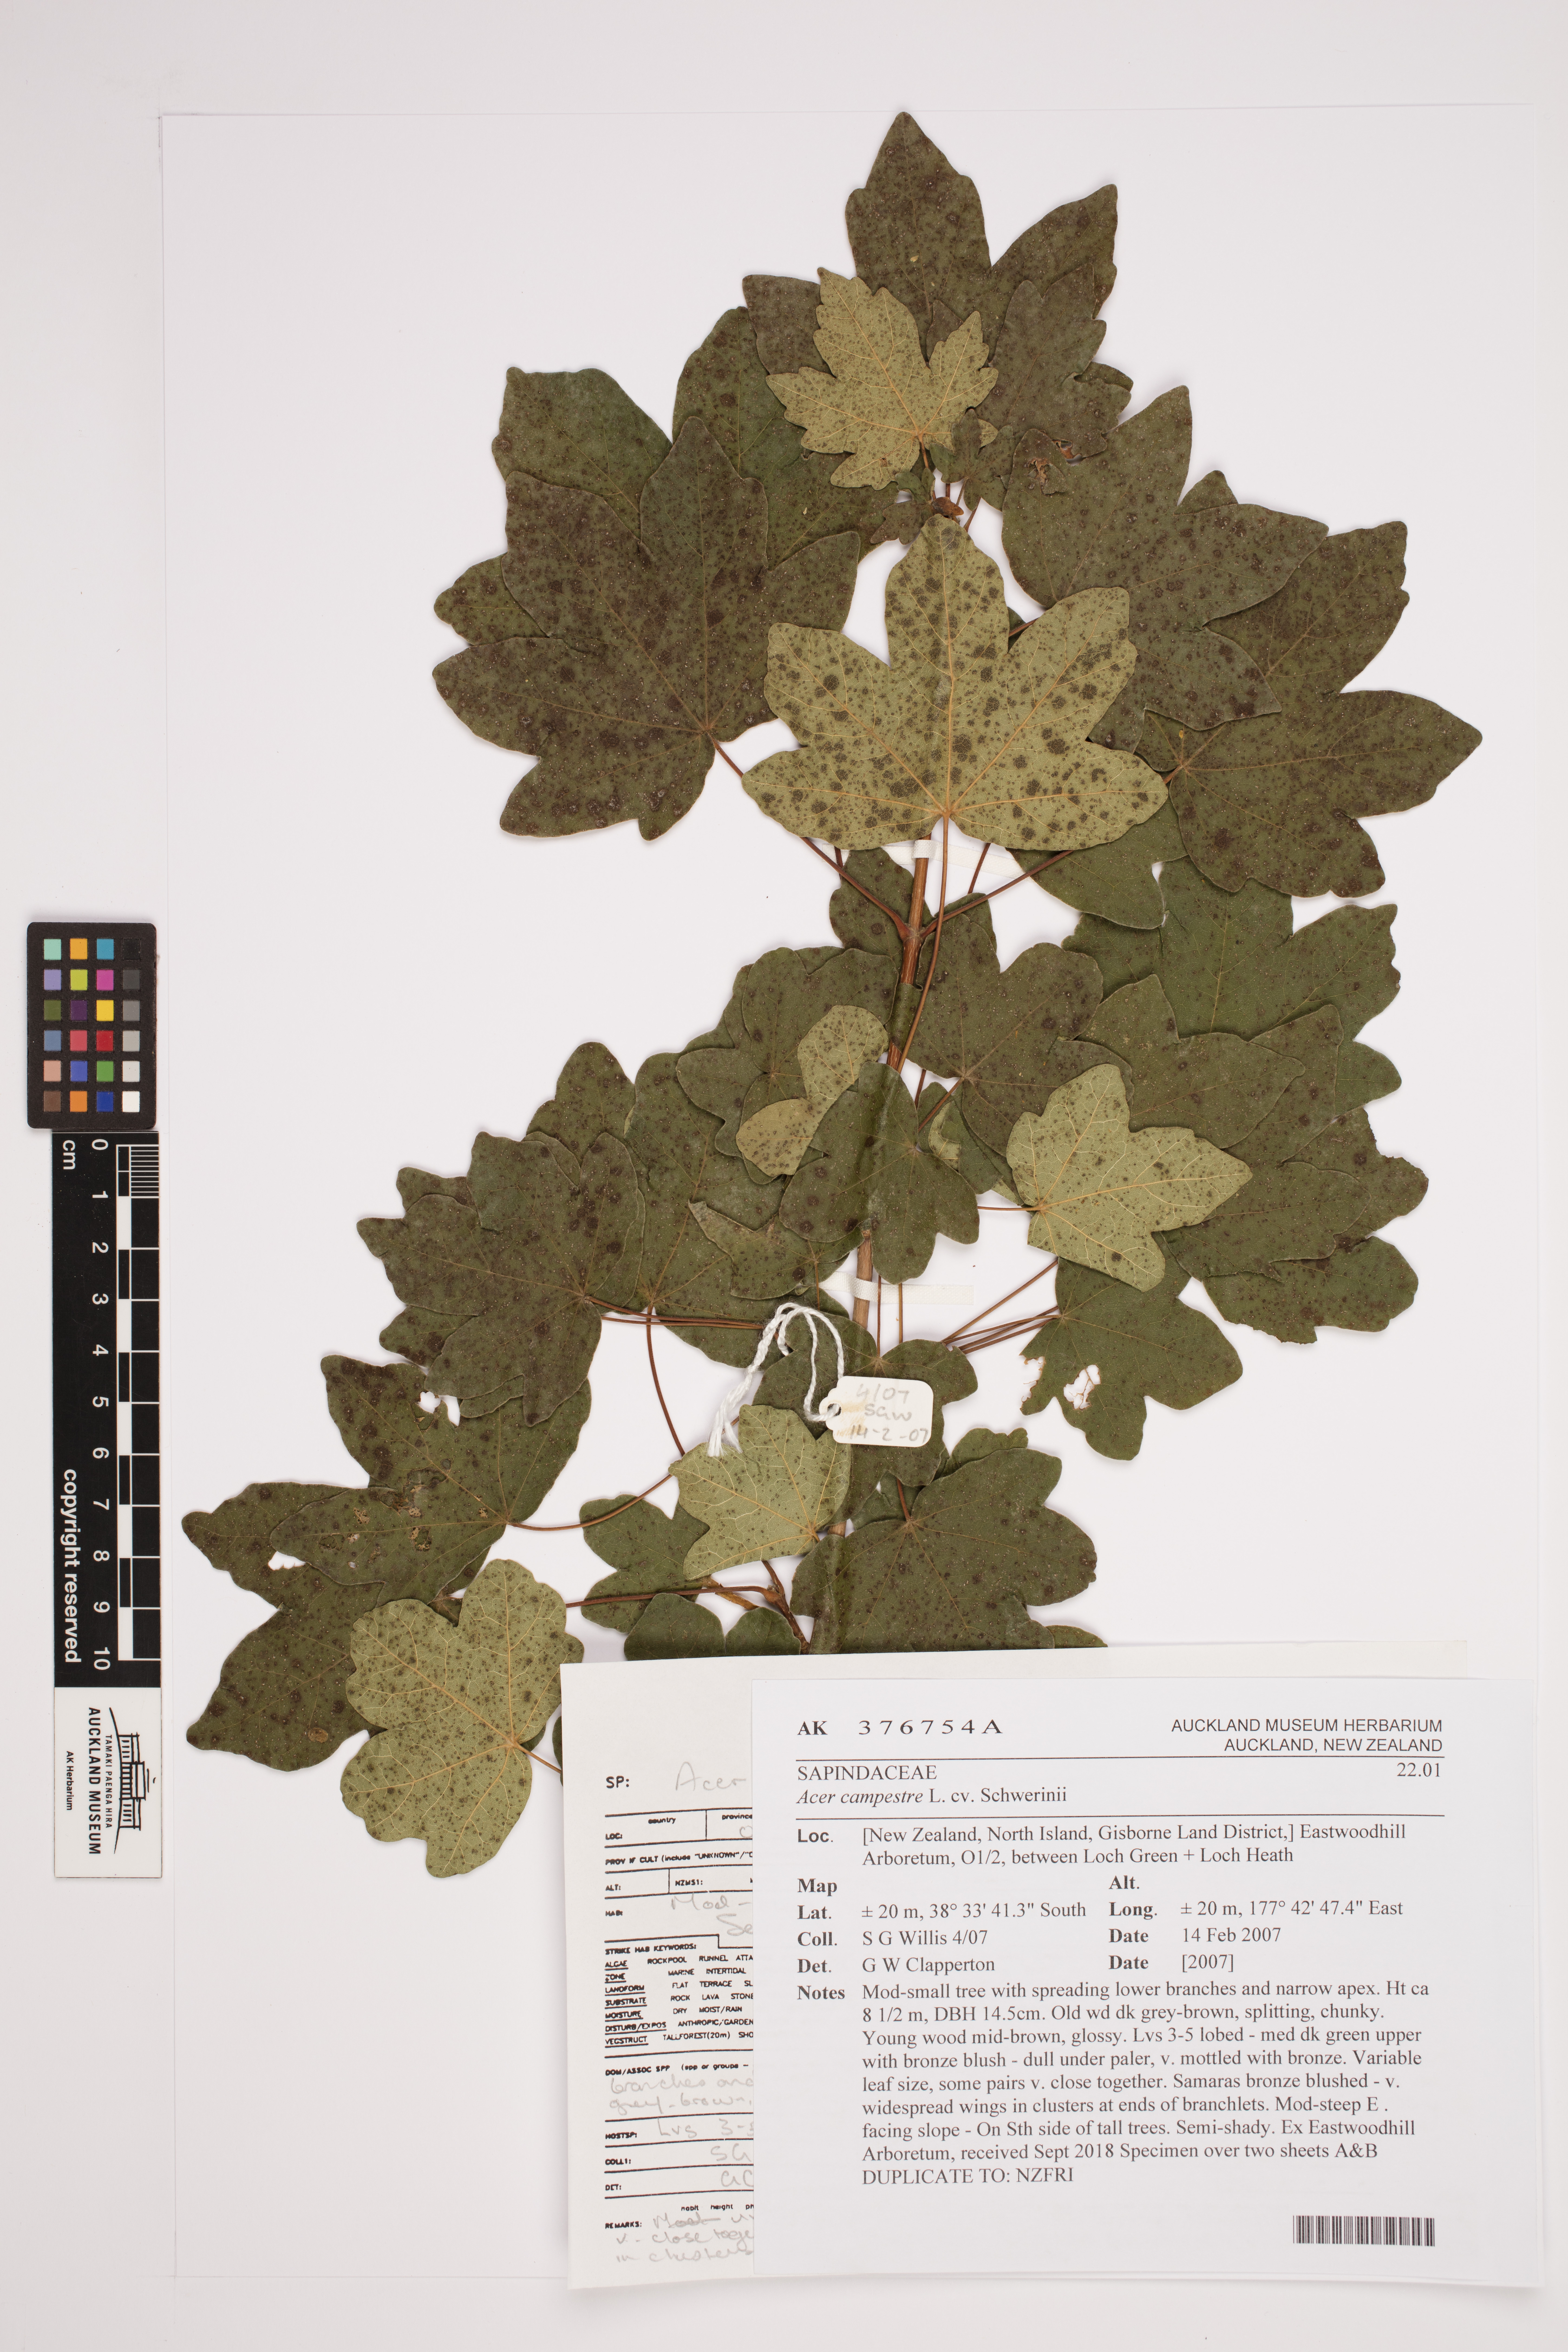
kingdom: Plantae
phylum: Tracheophyta
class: Magnoliopsida
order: Sapindales
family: Sapindaceae
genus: Acer
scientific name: Acer campestre
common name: Field maple
